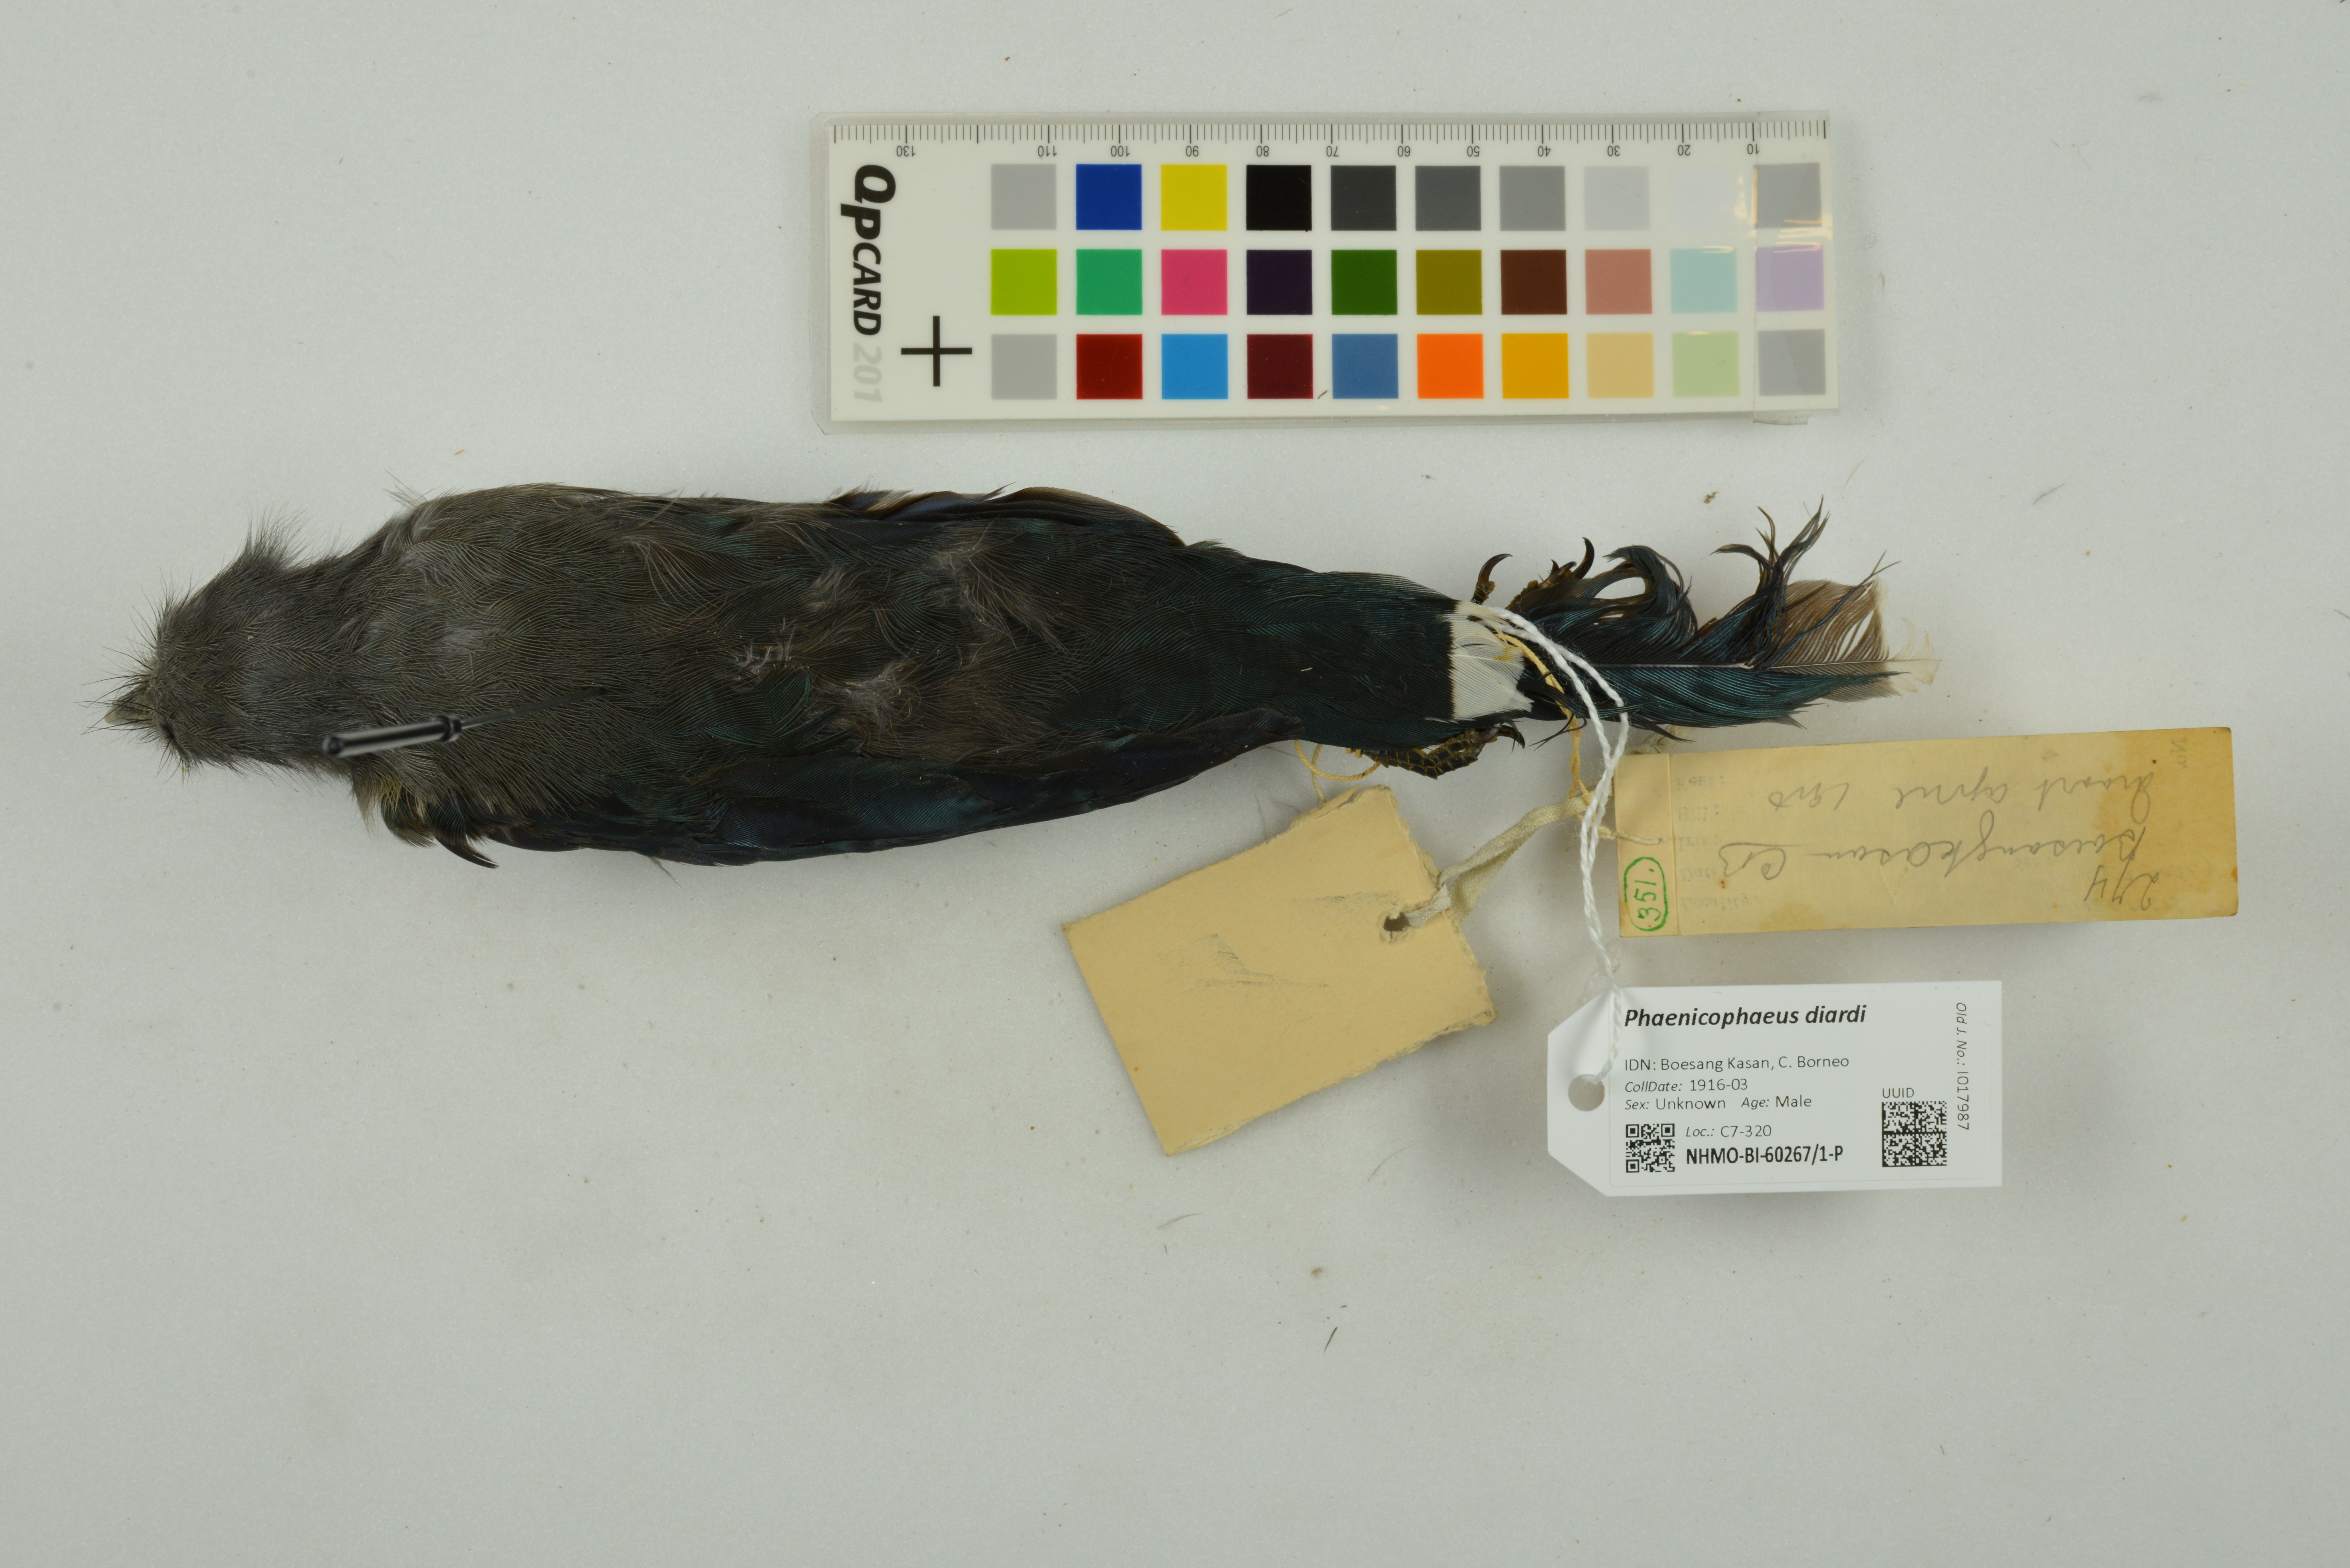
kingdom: Animalia
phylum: Chordata
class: Aves
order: Cuculiformes
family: Cuculidae
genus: Rhopodytes
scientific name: Rhopodytes diardi
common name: Lesser green-billed malcoha
